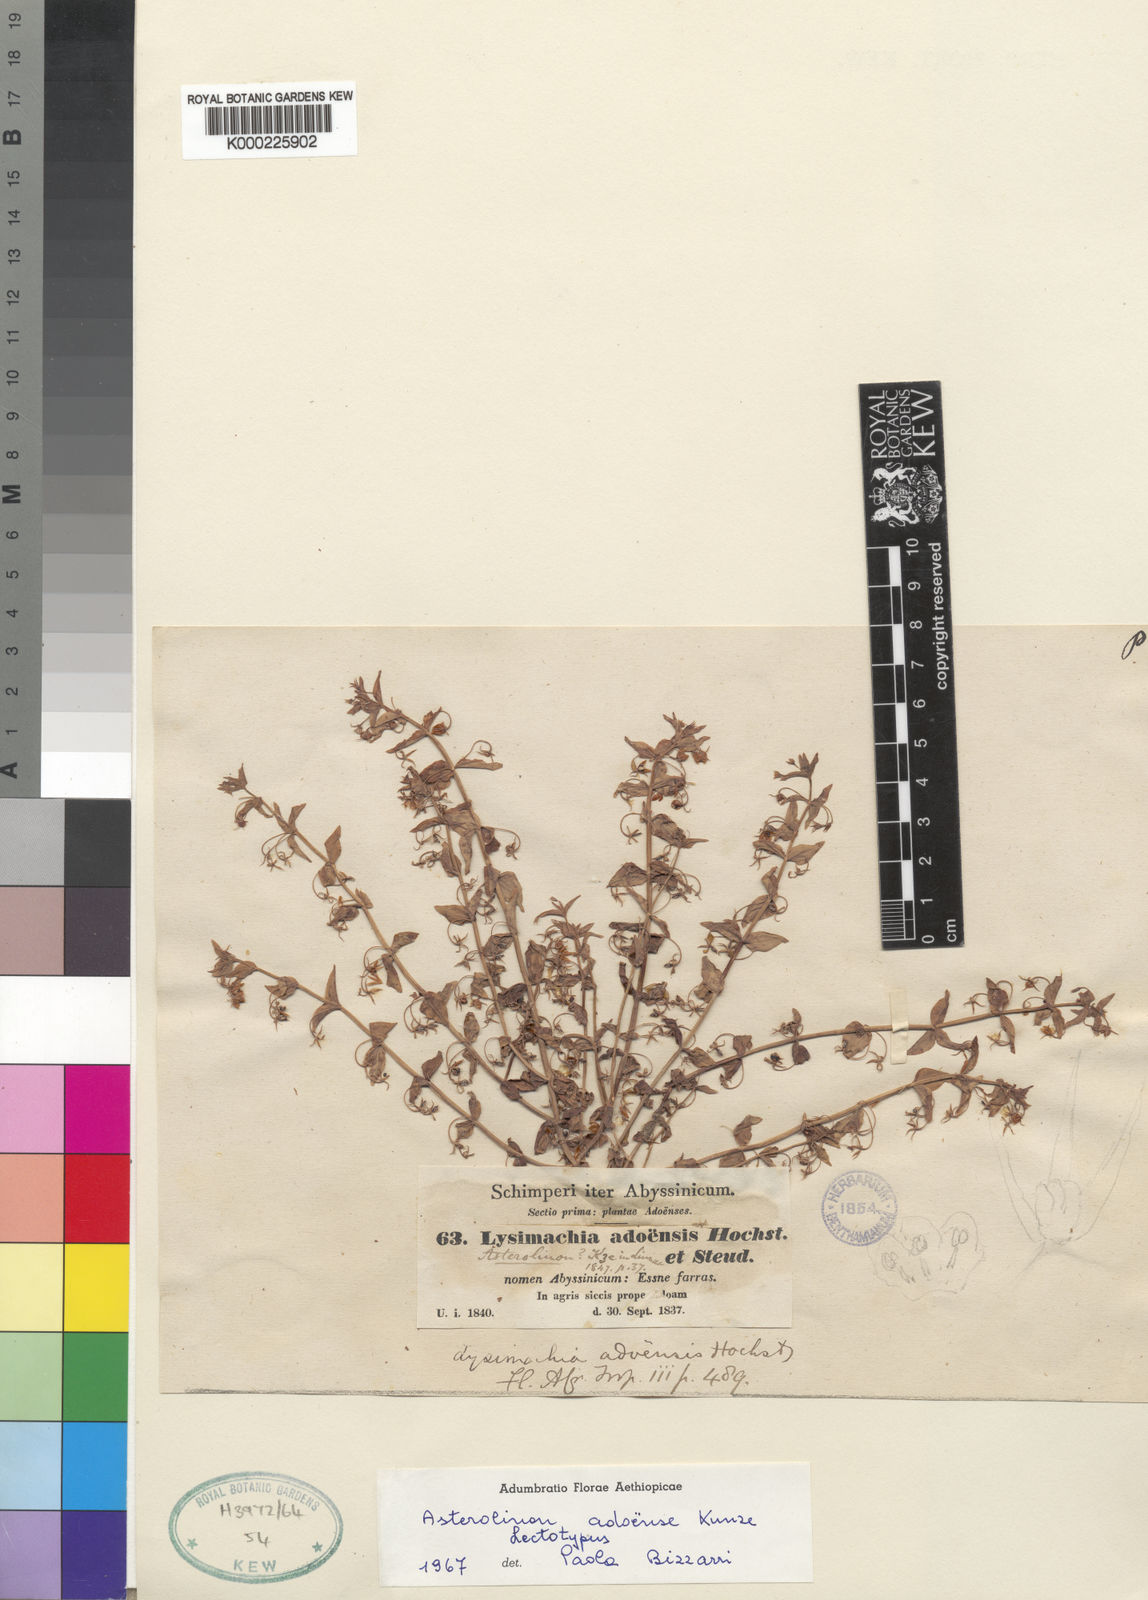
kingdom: Plantae
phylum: Tracheophyta
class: Magnoliopsida
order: Ericales
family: Primulaceae
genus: Lysimachia
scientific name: Lysimachia adoensis
